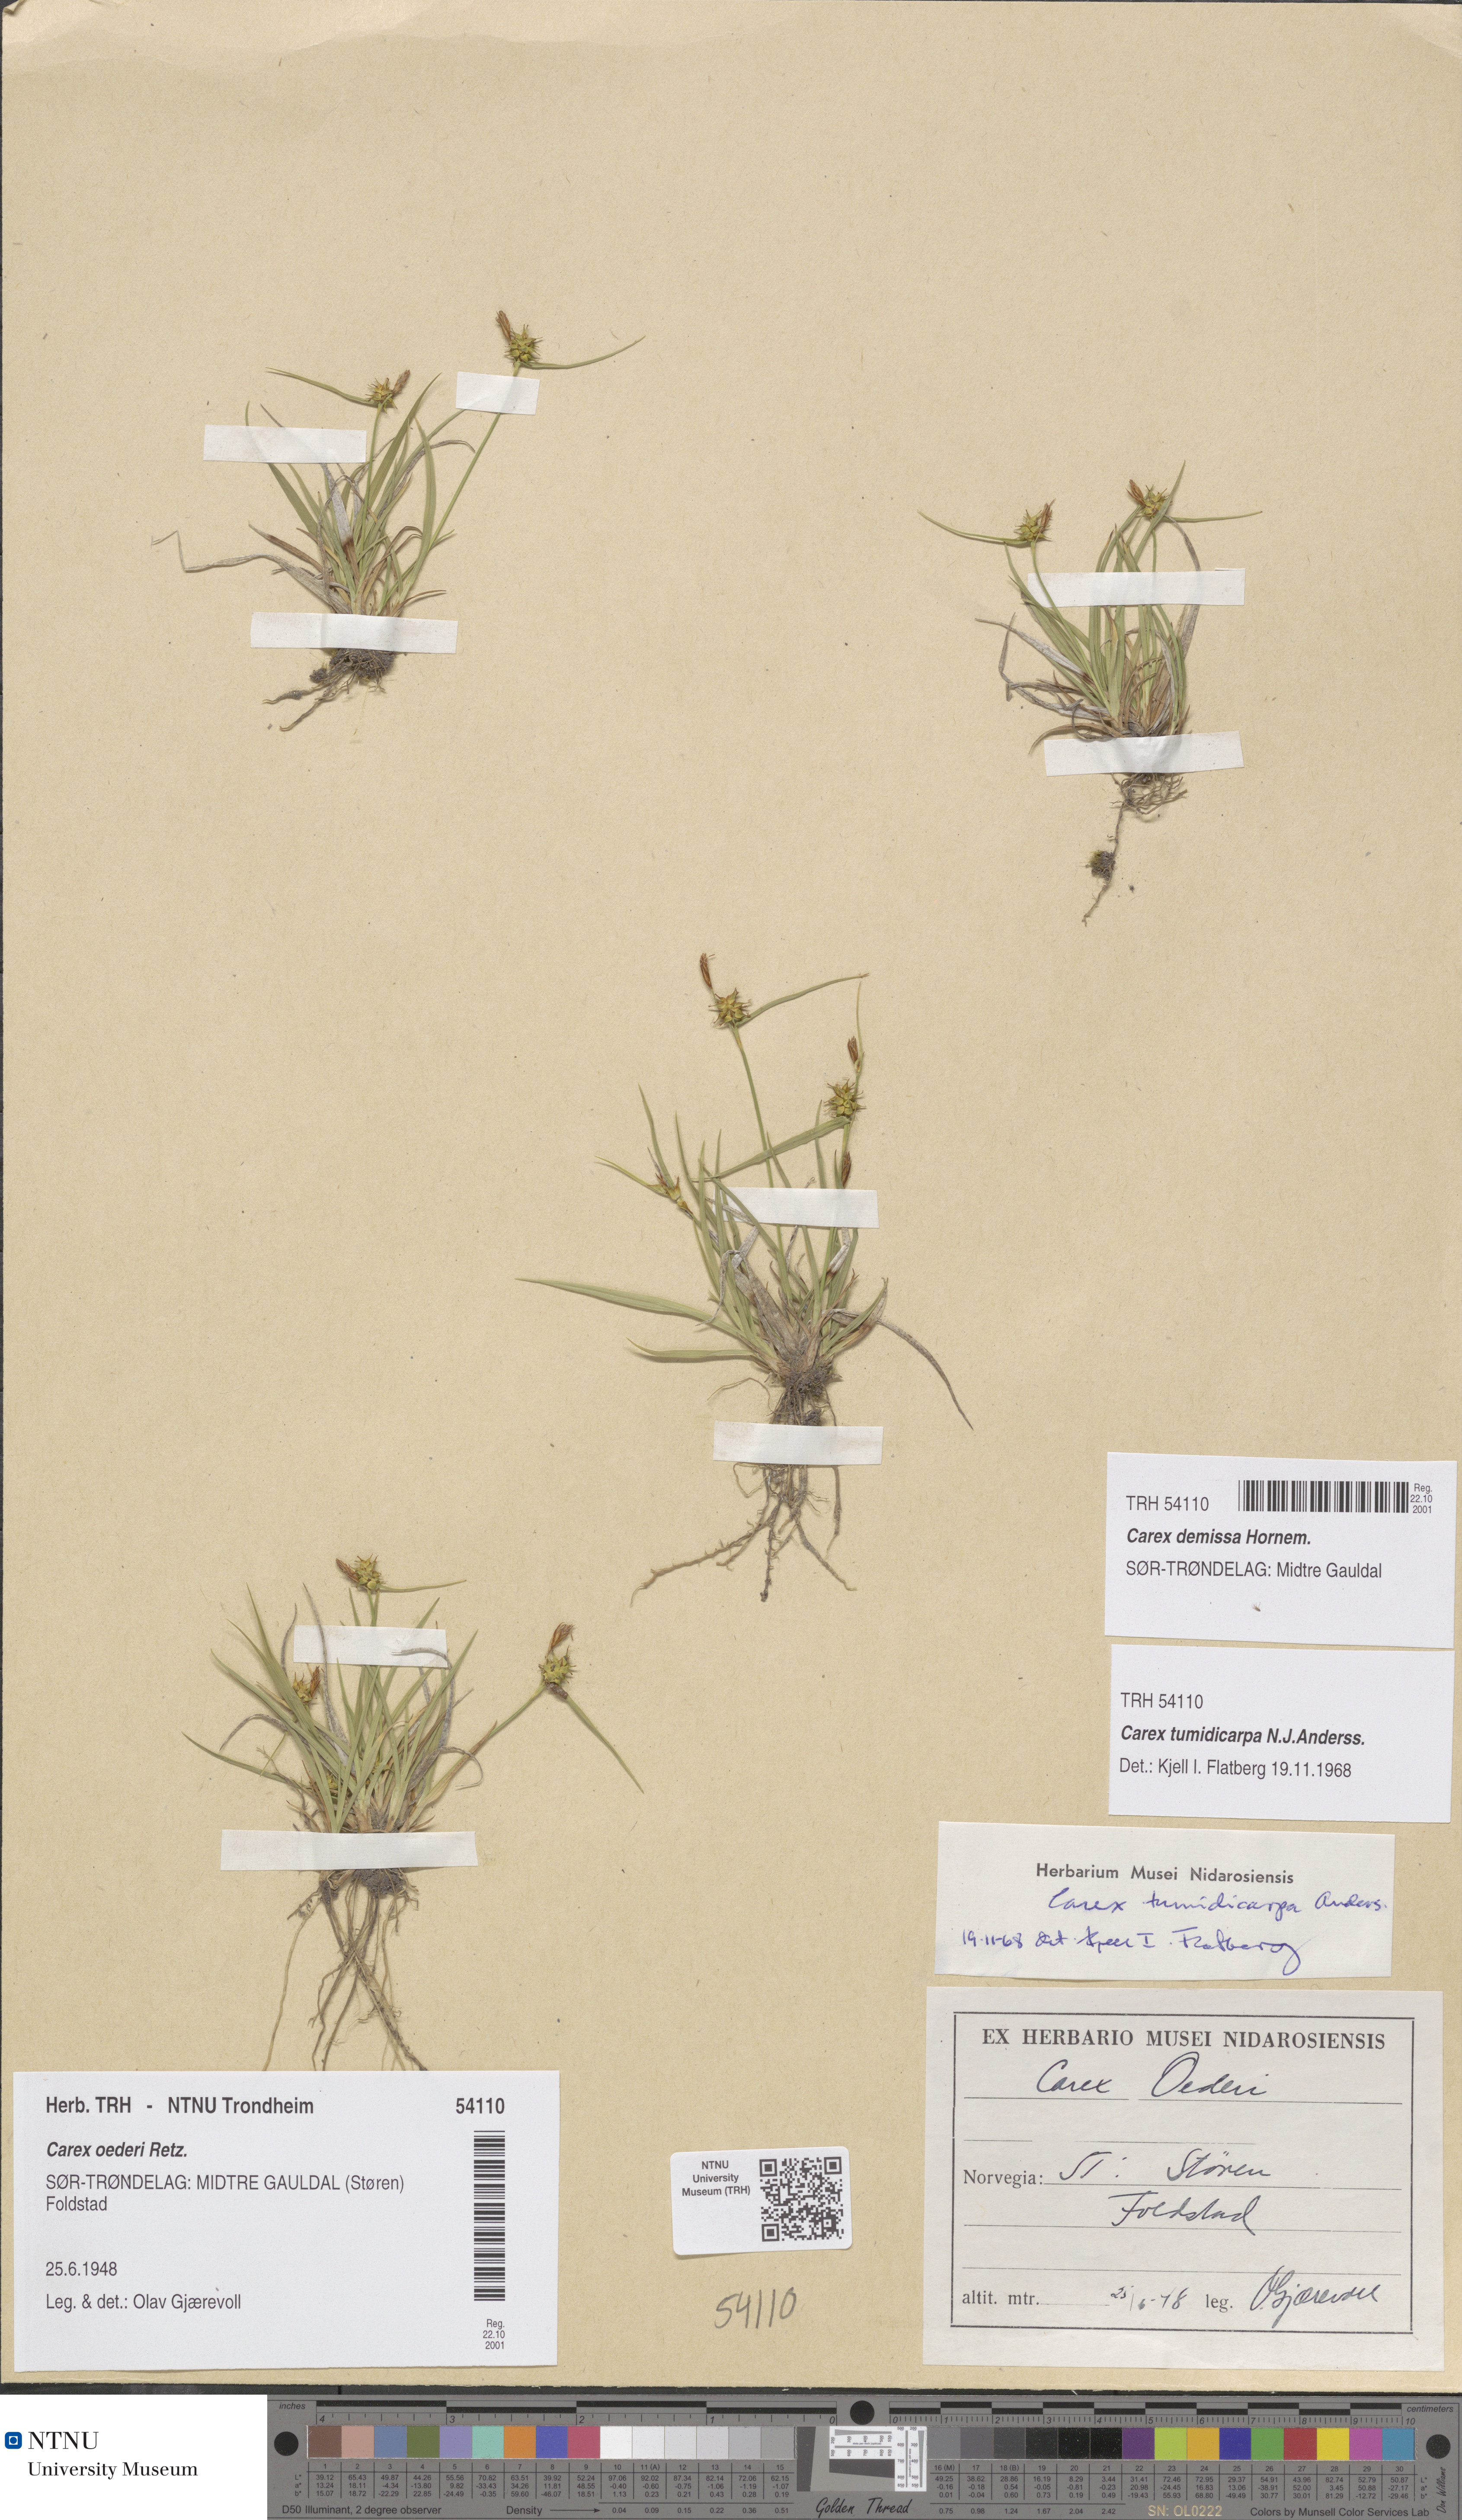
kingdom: Plantae
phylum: Tracheophyta
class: Liliopsida
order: Poales
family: Cyperaceae
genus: Carex
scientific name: Carex demissa
